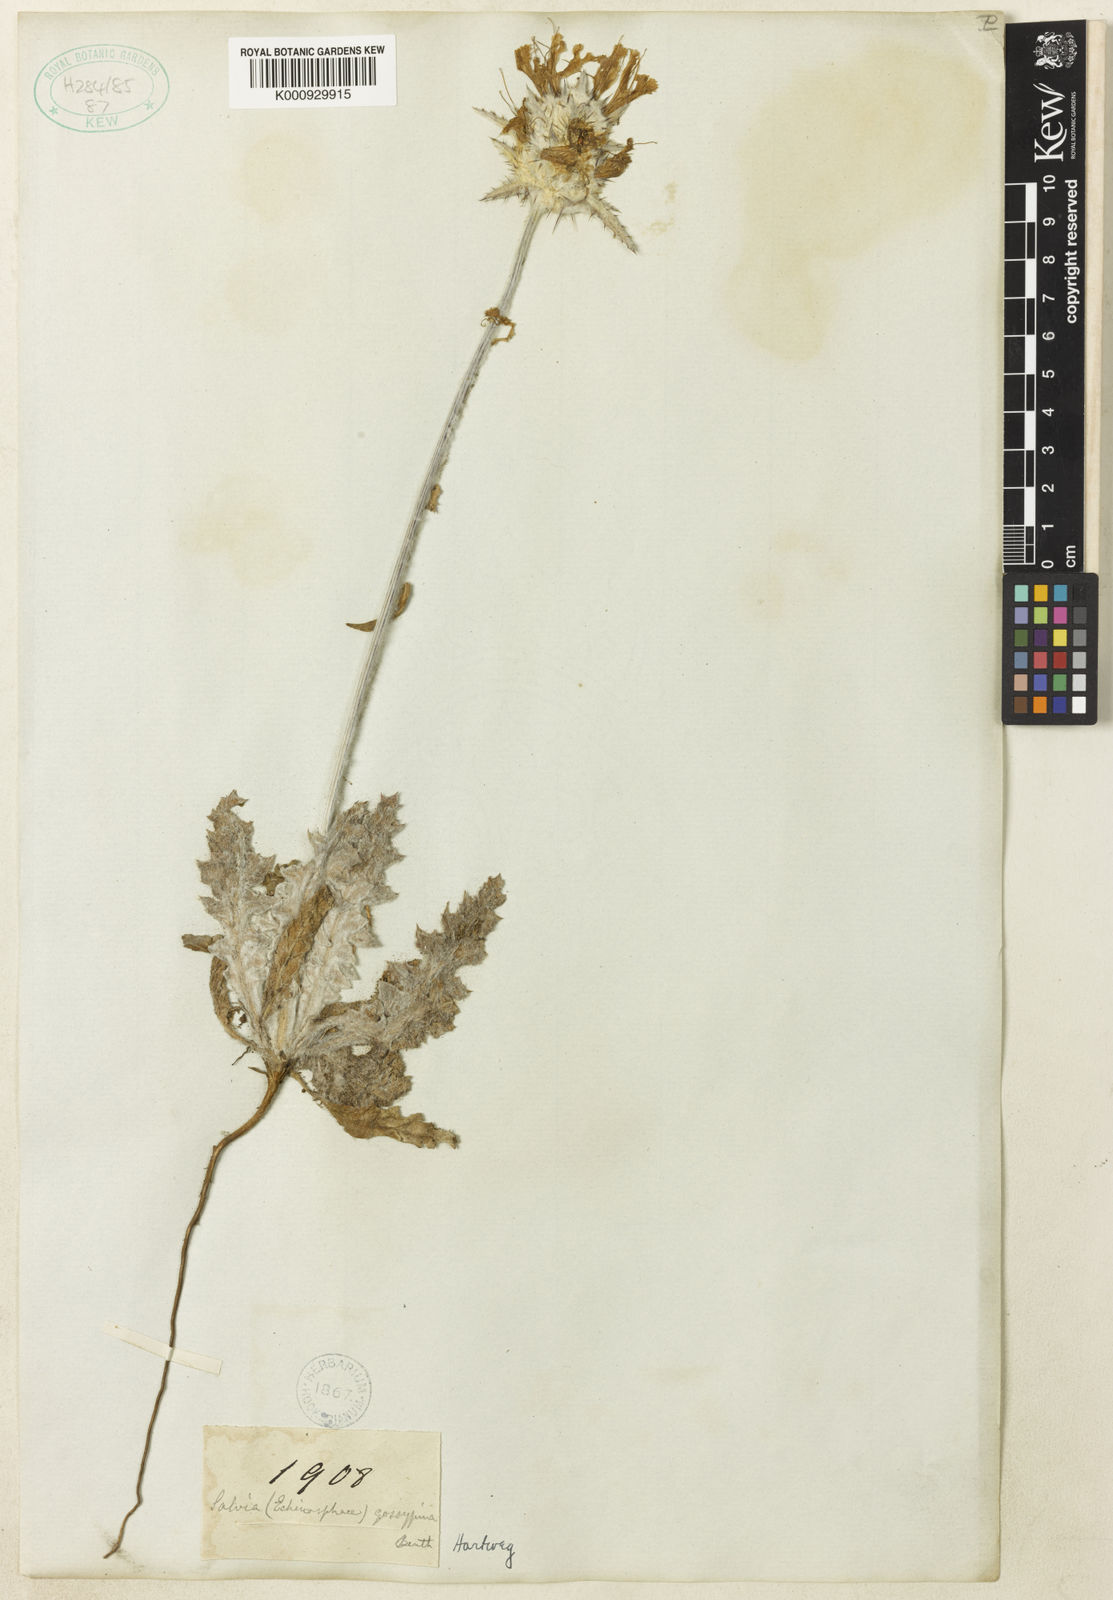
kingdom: Plantae
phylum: Tracheophyta
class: Magnoliopsida
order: Lamiales
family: Lamiaceae
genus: Salvia
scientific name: Salvia carduacea
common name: Thistle sage
